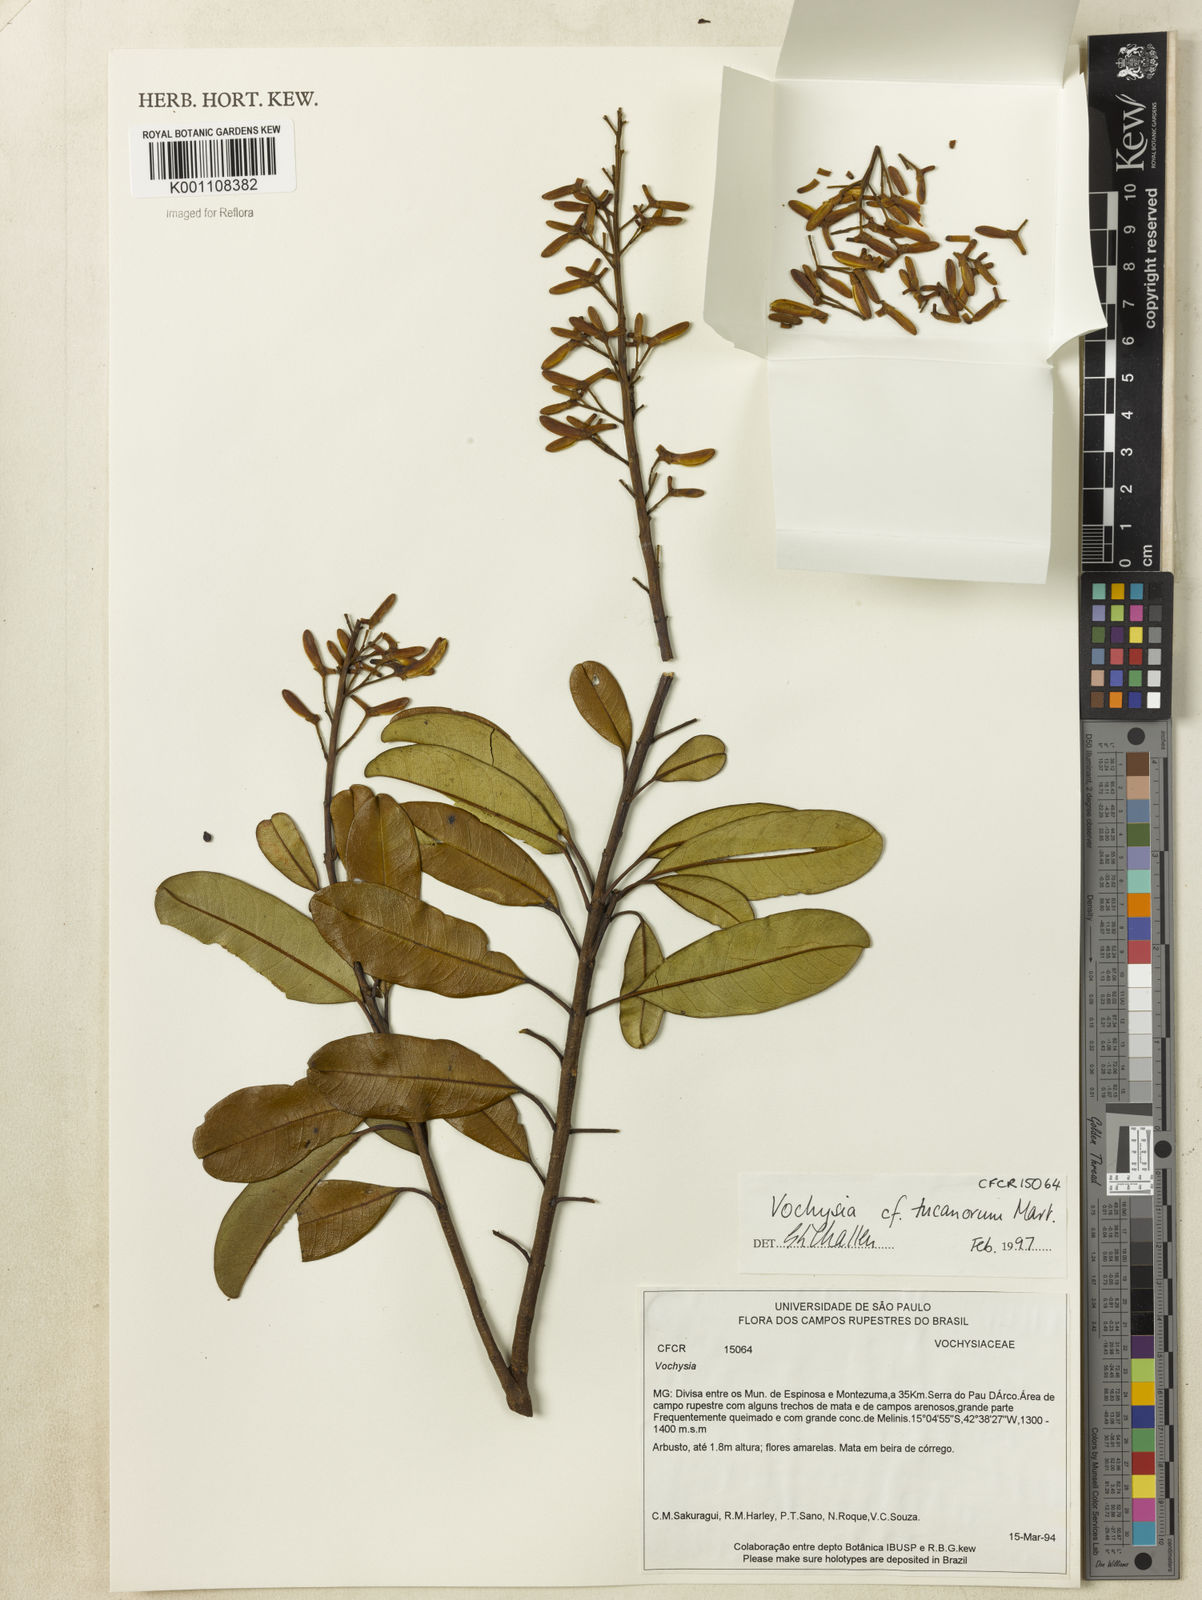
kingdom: Plantae
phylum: Tracheophyta
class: Magnoliopsida
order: Myrtales
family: Vochysiaceae
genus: Vochysia
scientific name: Vochysia tucanorum
